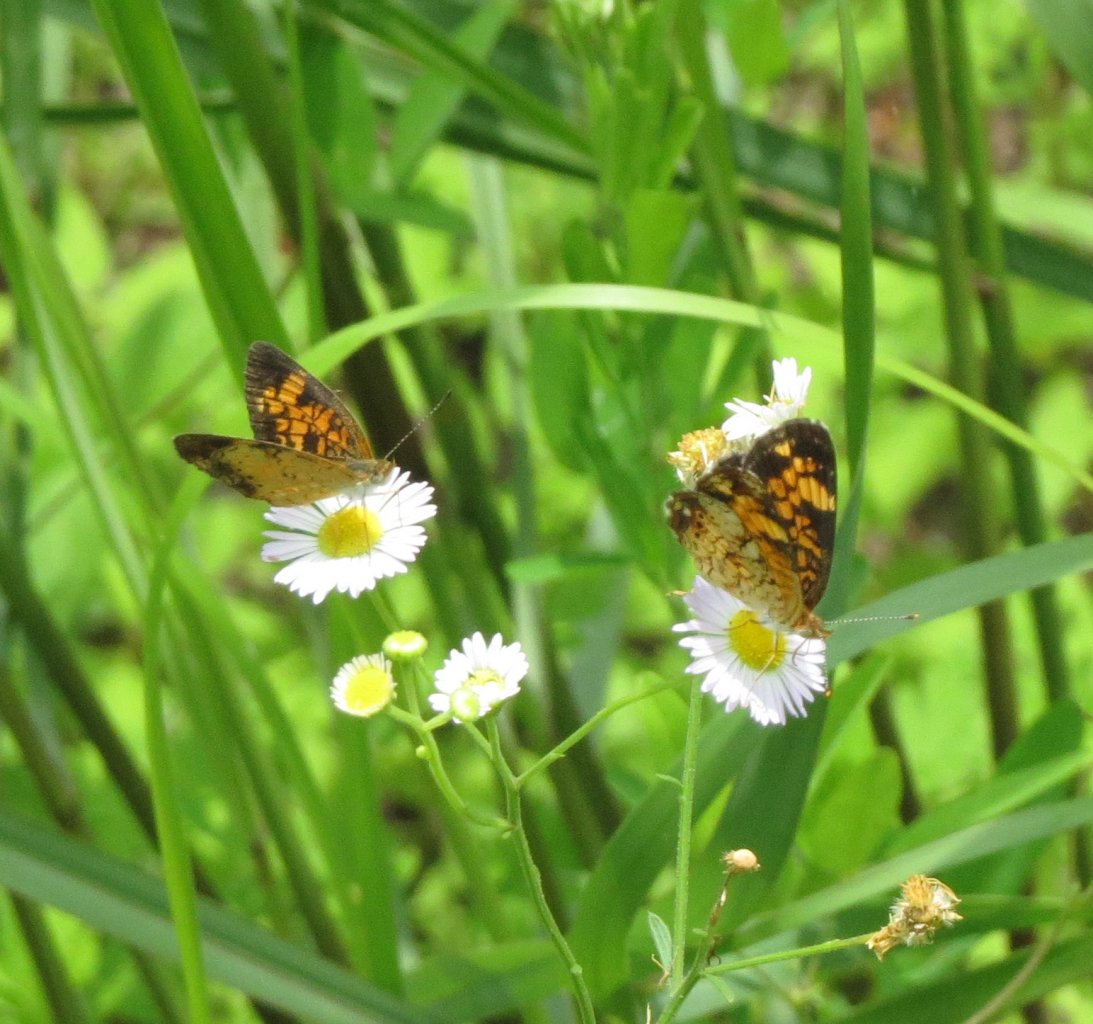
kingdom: Animalia
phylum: Arthropoda
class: Insecta
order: Lepidoptera
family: Nymphalidae
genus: Phyciodes
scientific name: Phyciodes tharos
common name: Pearl Crescent
